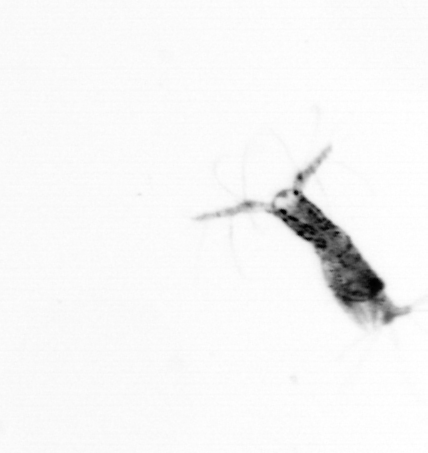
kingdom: Animalia
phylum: Arthropoda
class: Copepoda
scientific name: Copepoda
